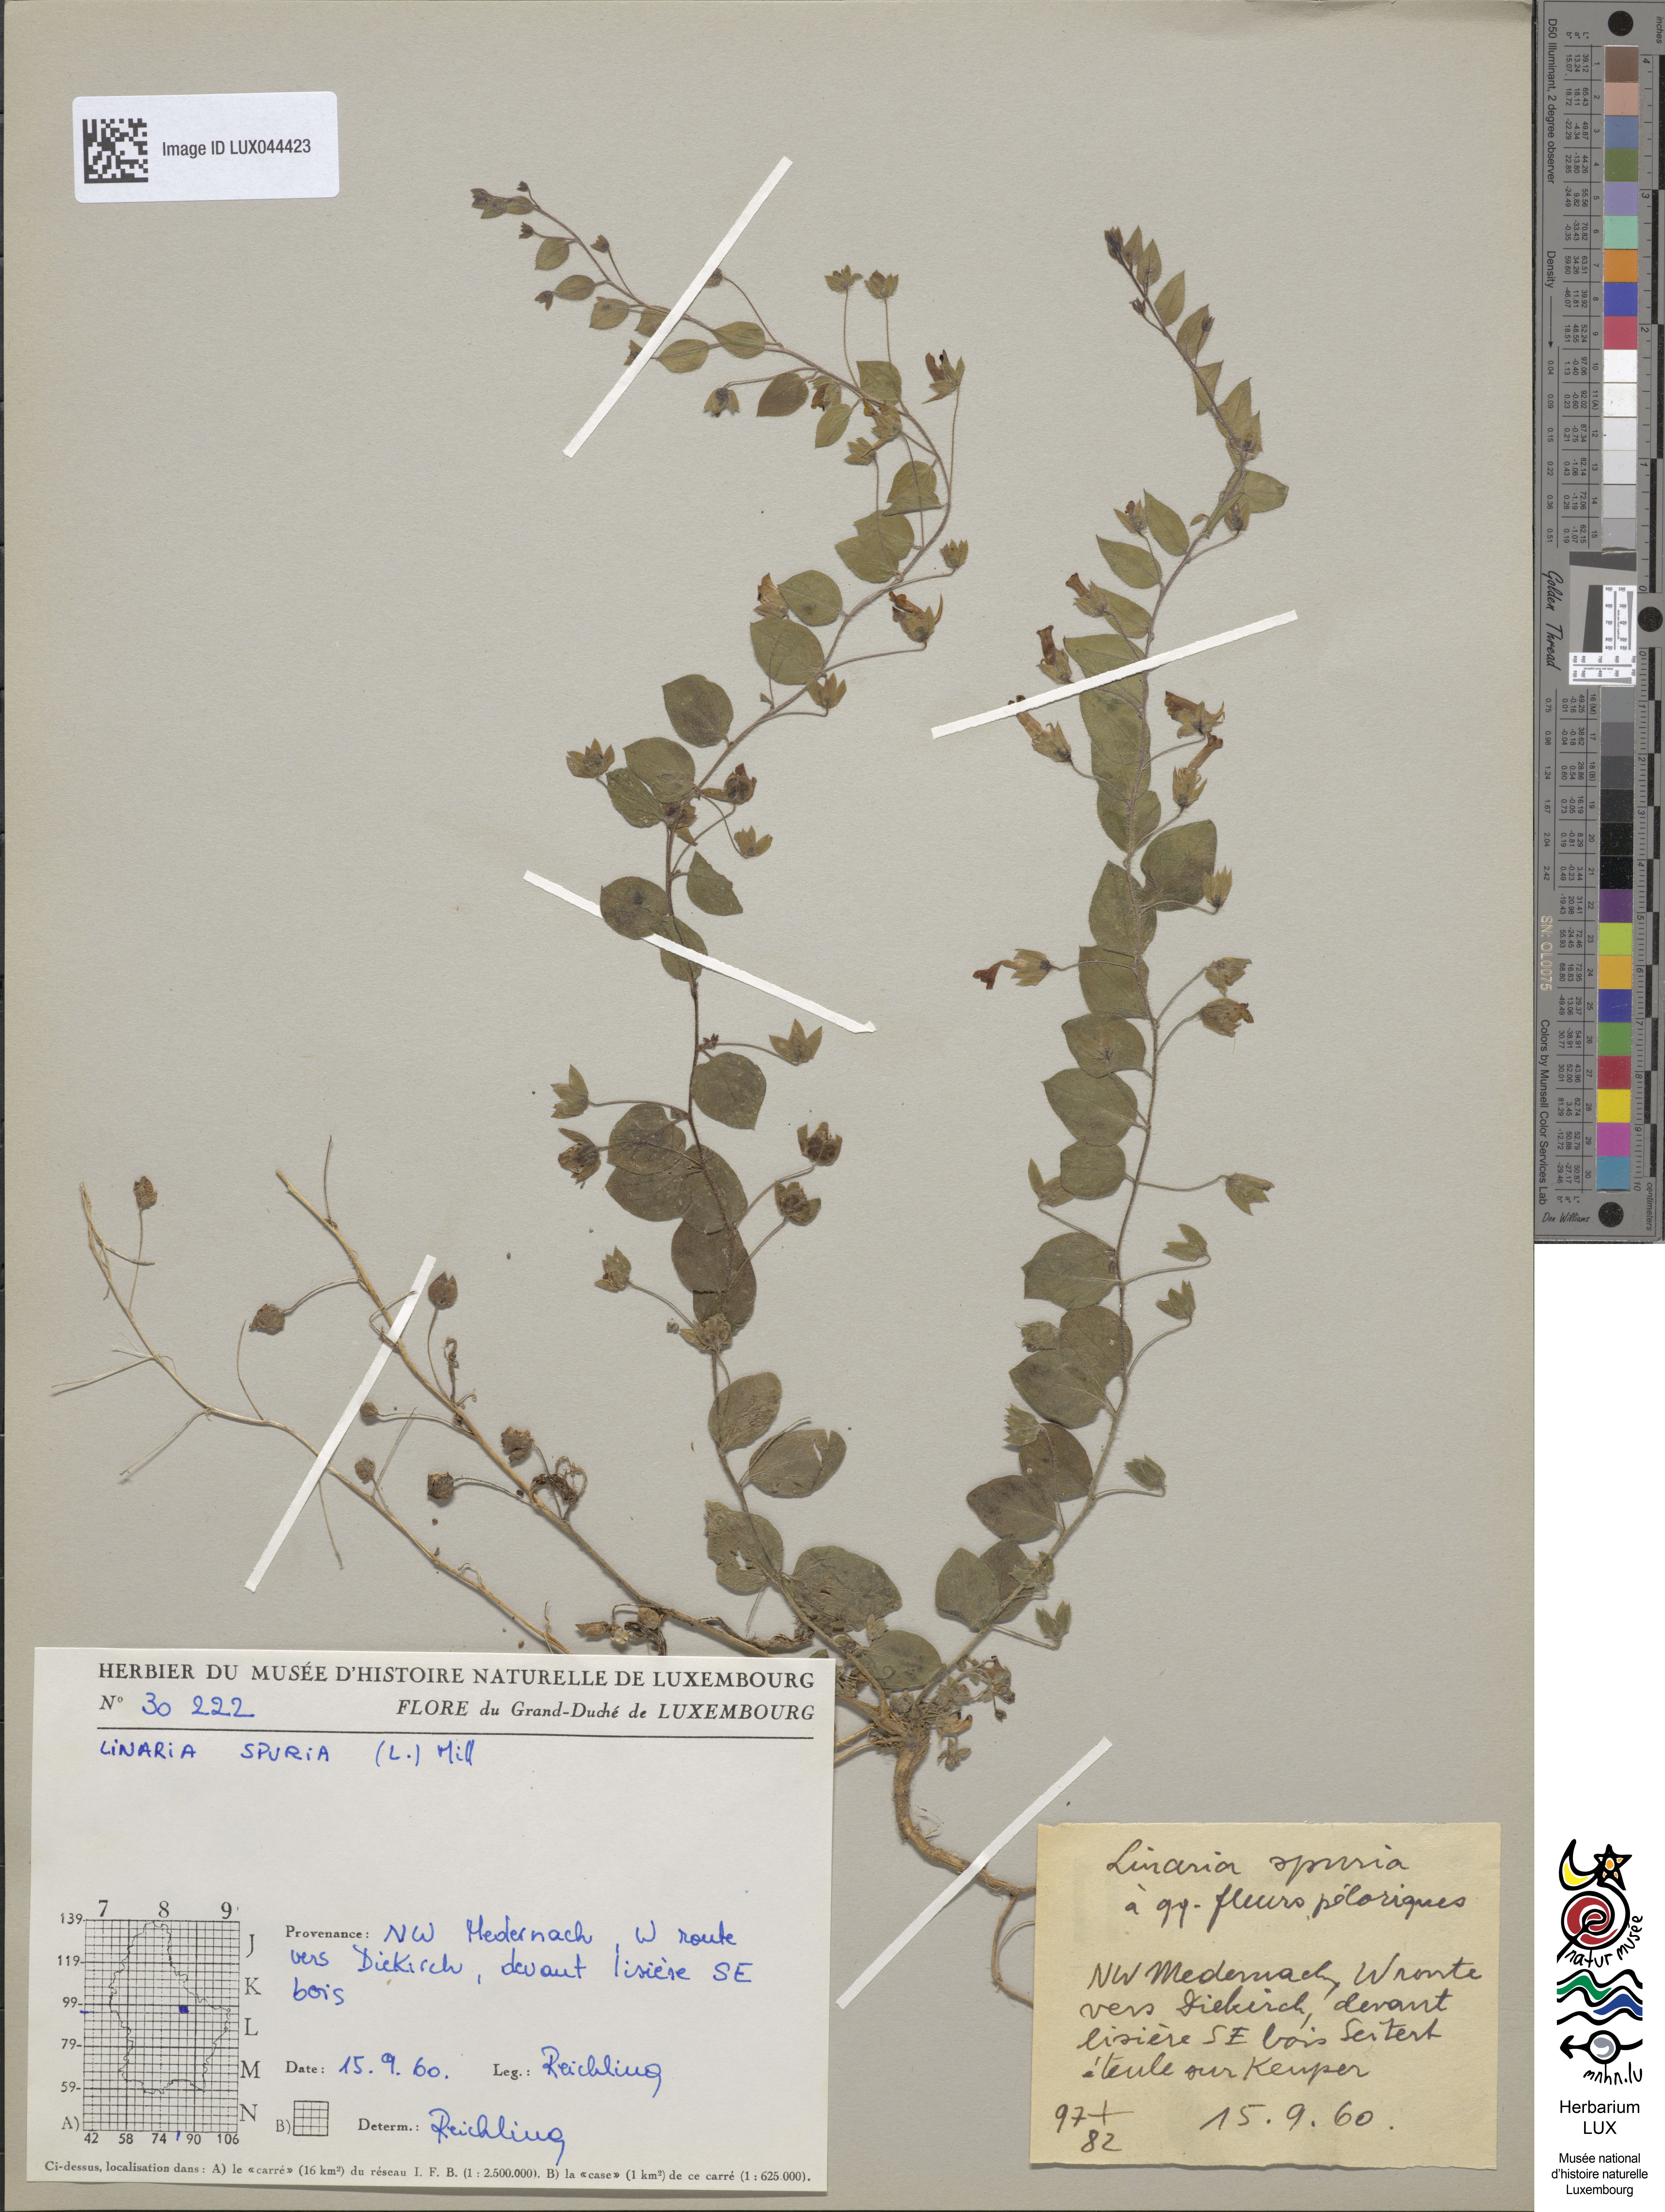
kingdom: Plantae
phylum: Tracheophyta
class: Magnoliopsida
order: Lamiales
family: Plantaginaceae
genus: Kickxia
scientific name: Kickxia spuria
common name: Round-leaved fluellen
